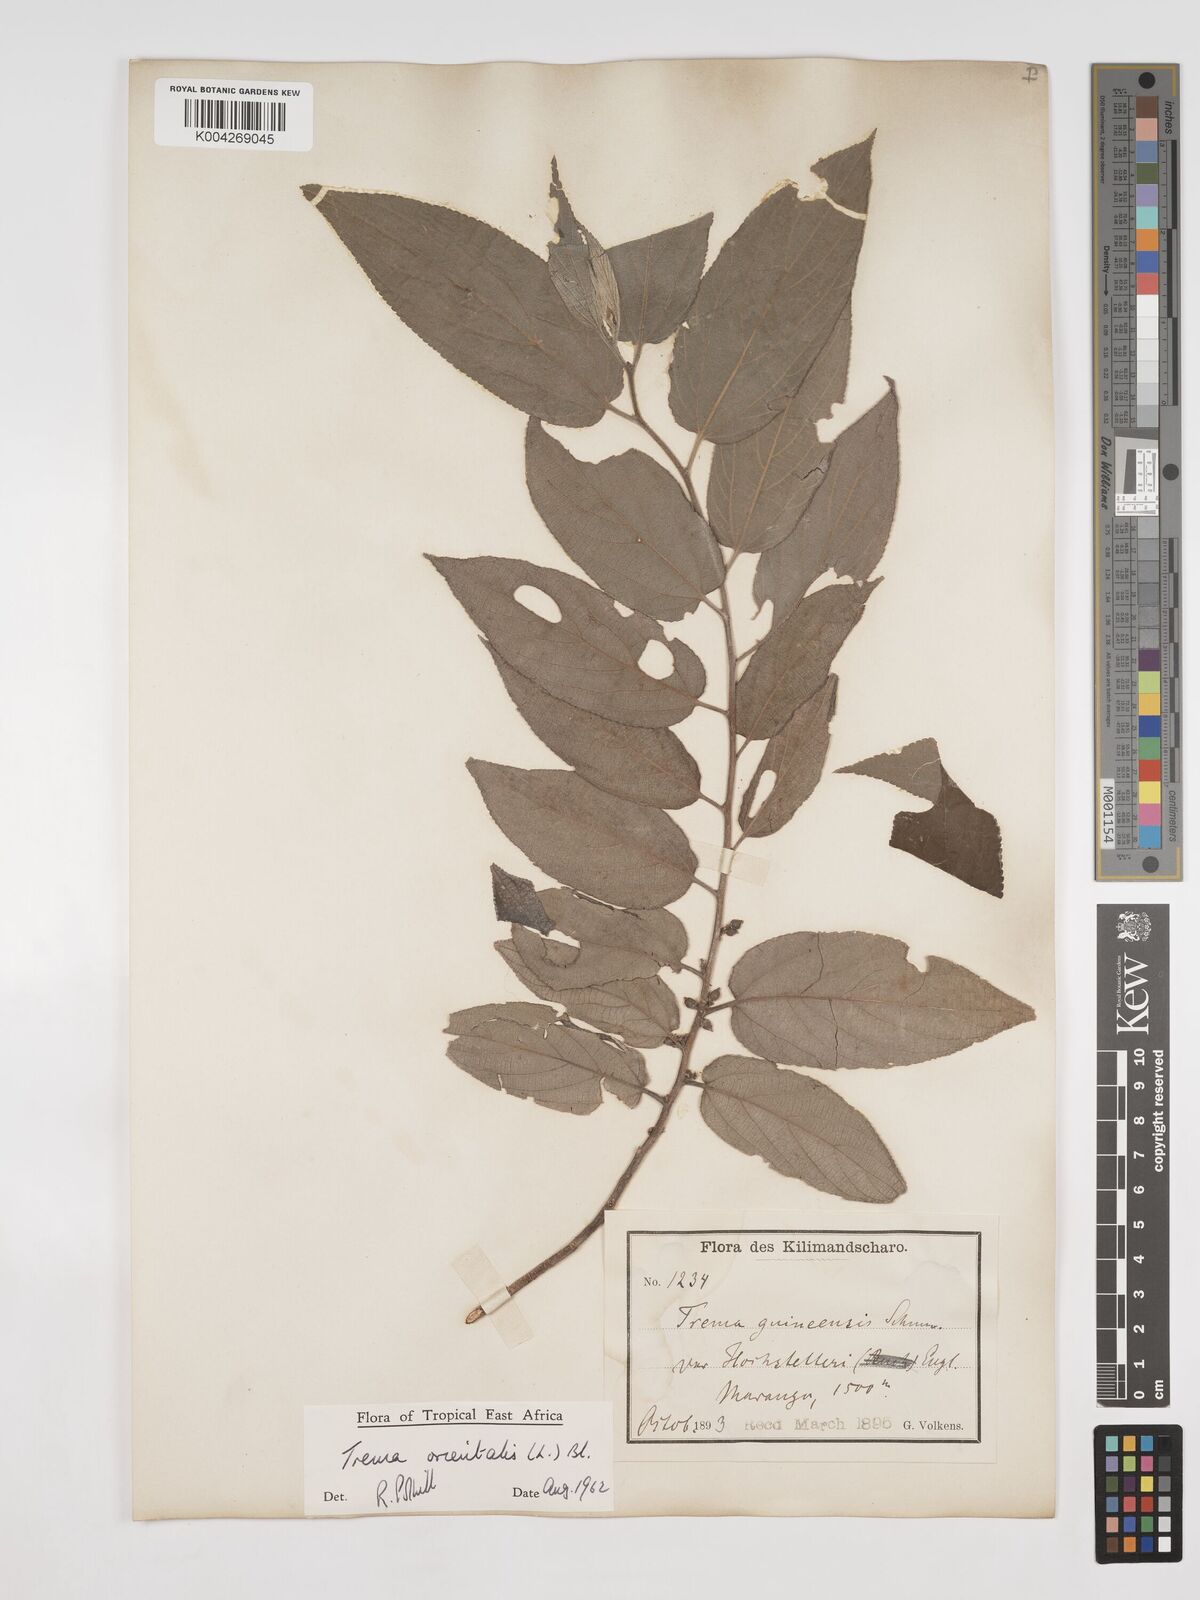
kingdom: Plantae
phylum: Tracheophyta
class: Magnoliopsida
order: Rosales
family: Cannabaceae
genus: Trema
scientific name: Trema orientale
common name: Indian charcoal tree
